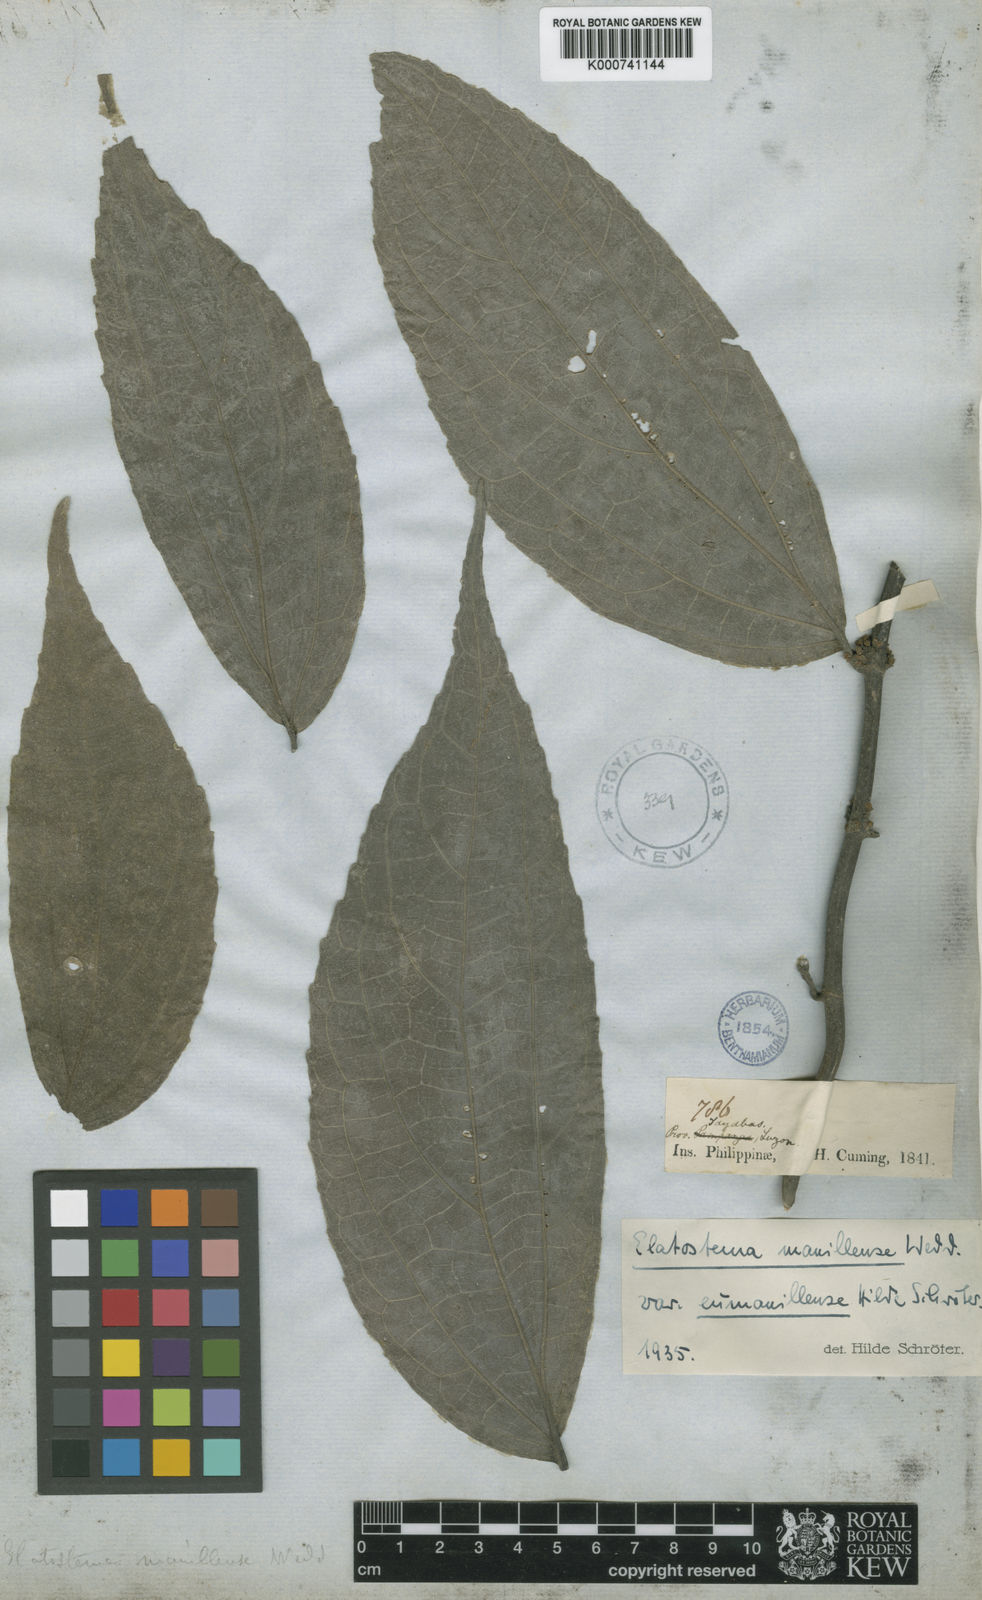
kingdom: Plantae
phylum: Tracheophyta
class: Magnoliopsida
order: Rosales
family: Urticaceae
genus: Elatostematoides
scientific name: Elatostematoides manillense
